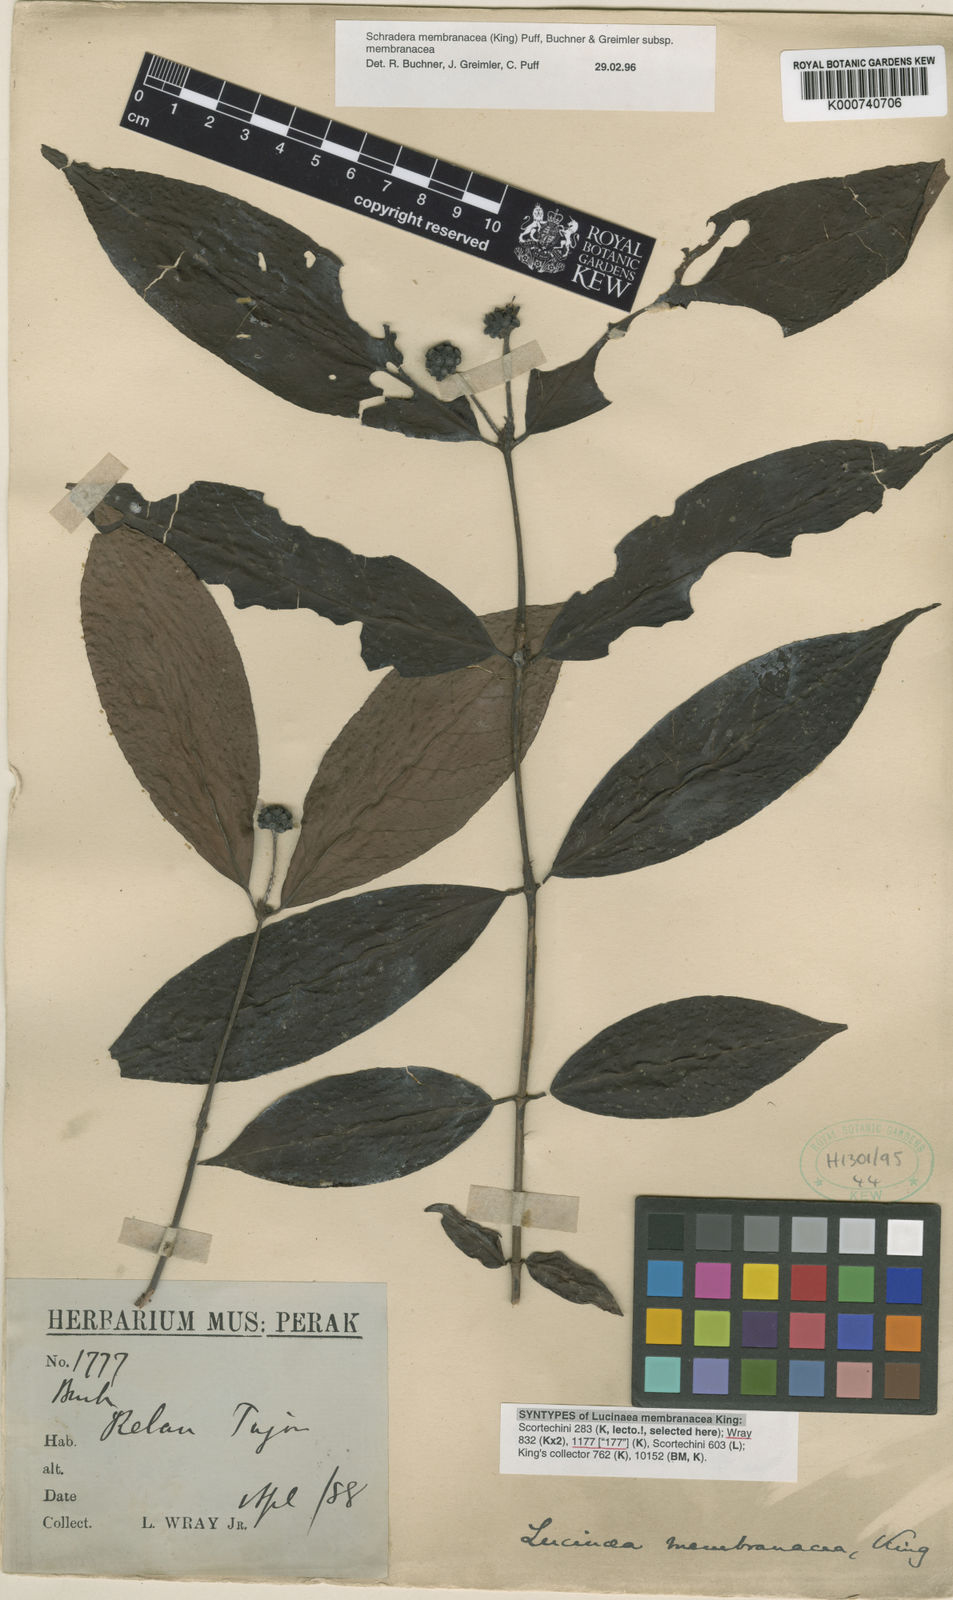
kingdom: Plantae
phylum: Tracheophyta
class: Magnoliopsida
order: Gentianales
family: Rubiaceae
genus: Schradera
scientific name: Schradera membranacea
